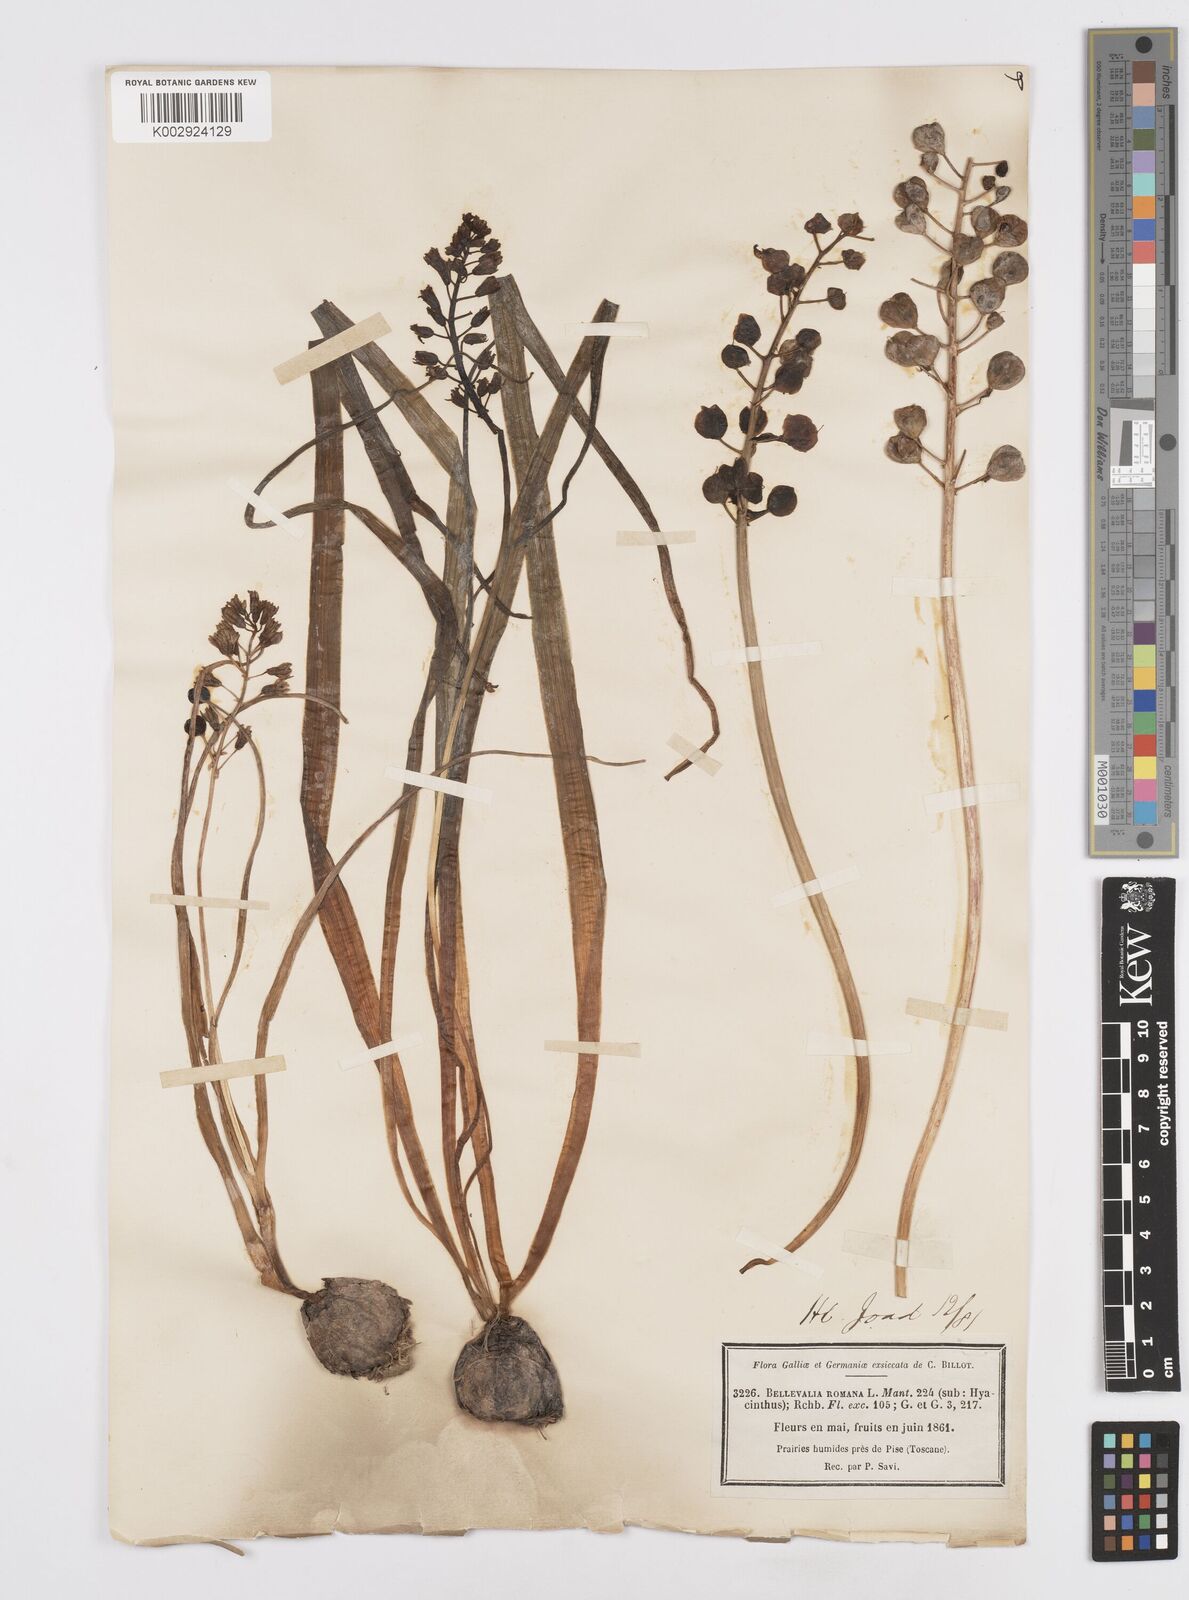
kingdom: Plantae
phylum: Tracheophyta
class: Liliopsida
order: Asparagales
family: Asparagaceae
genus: Bellevalia
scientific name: Bellevalia
